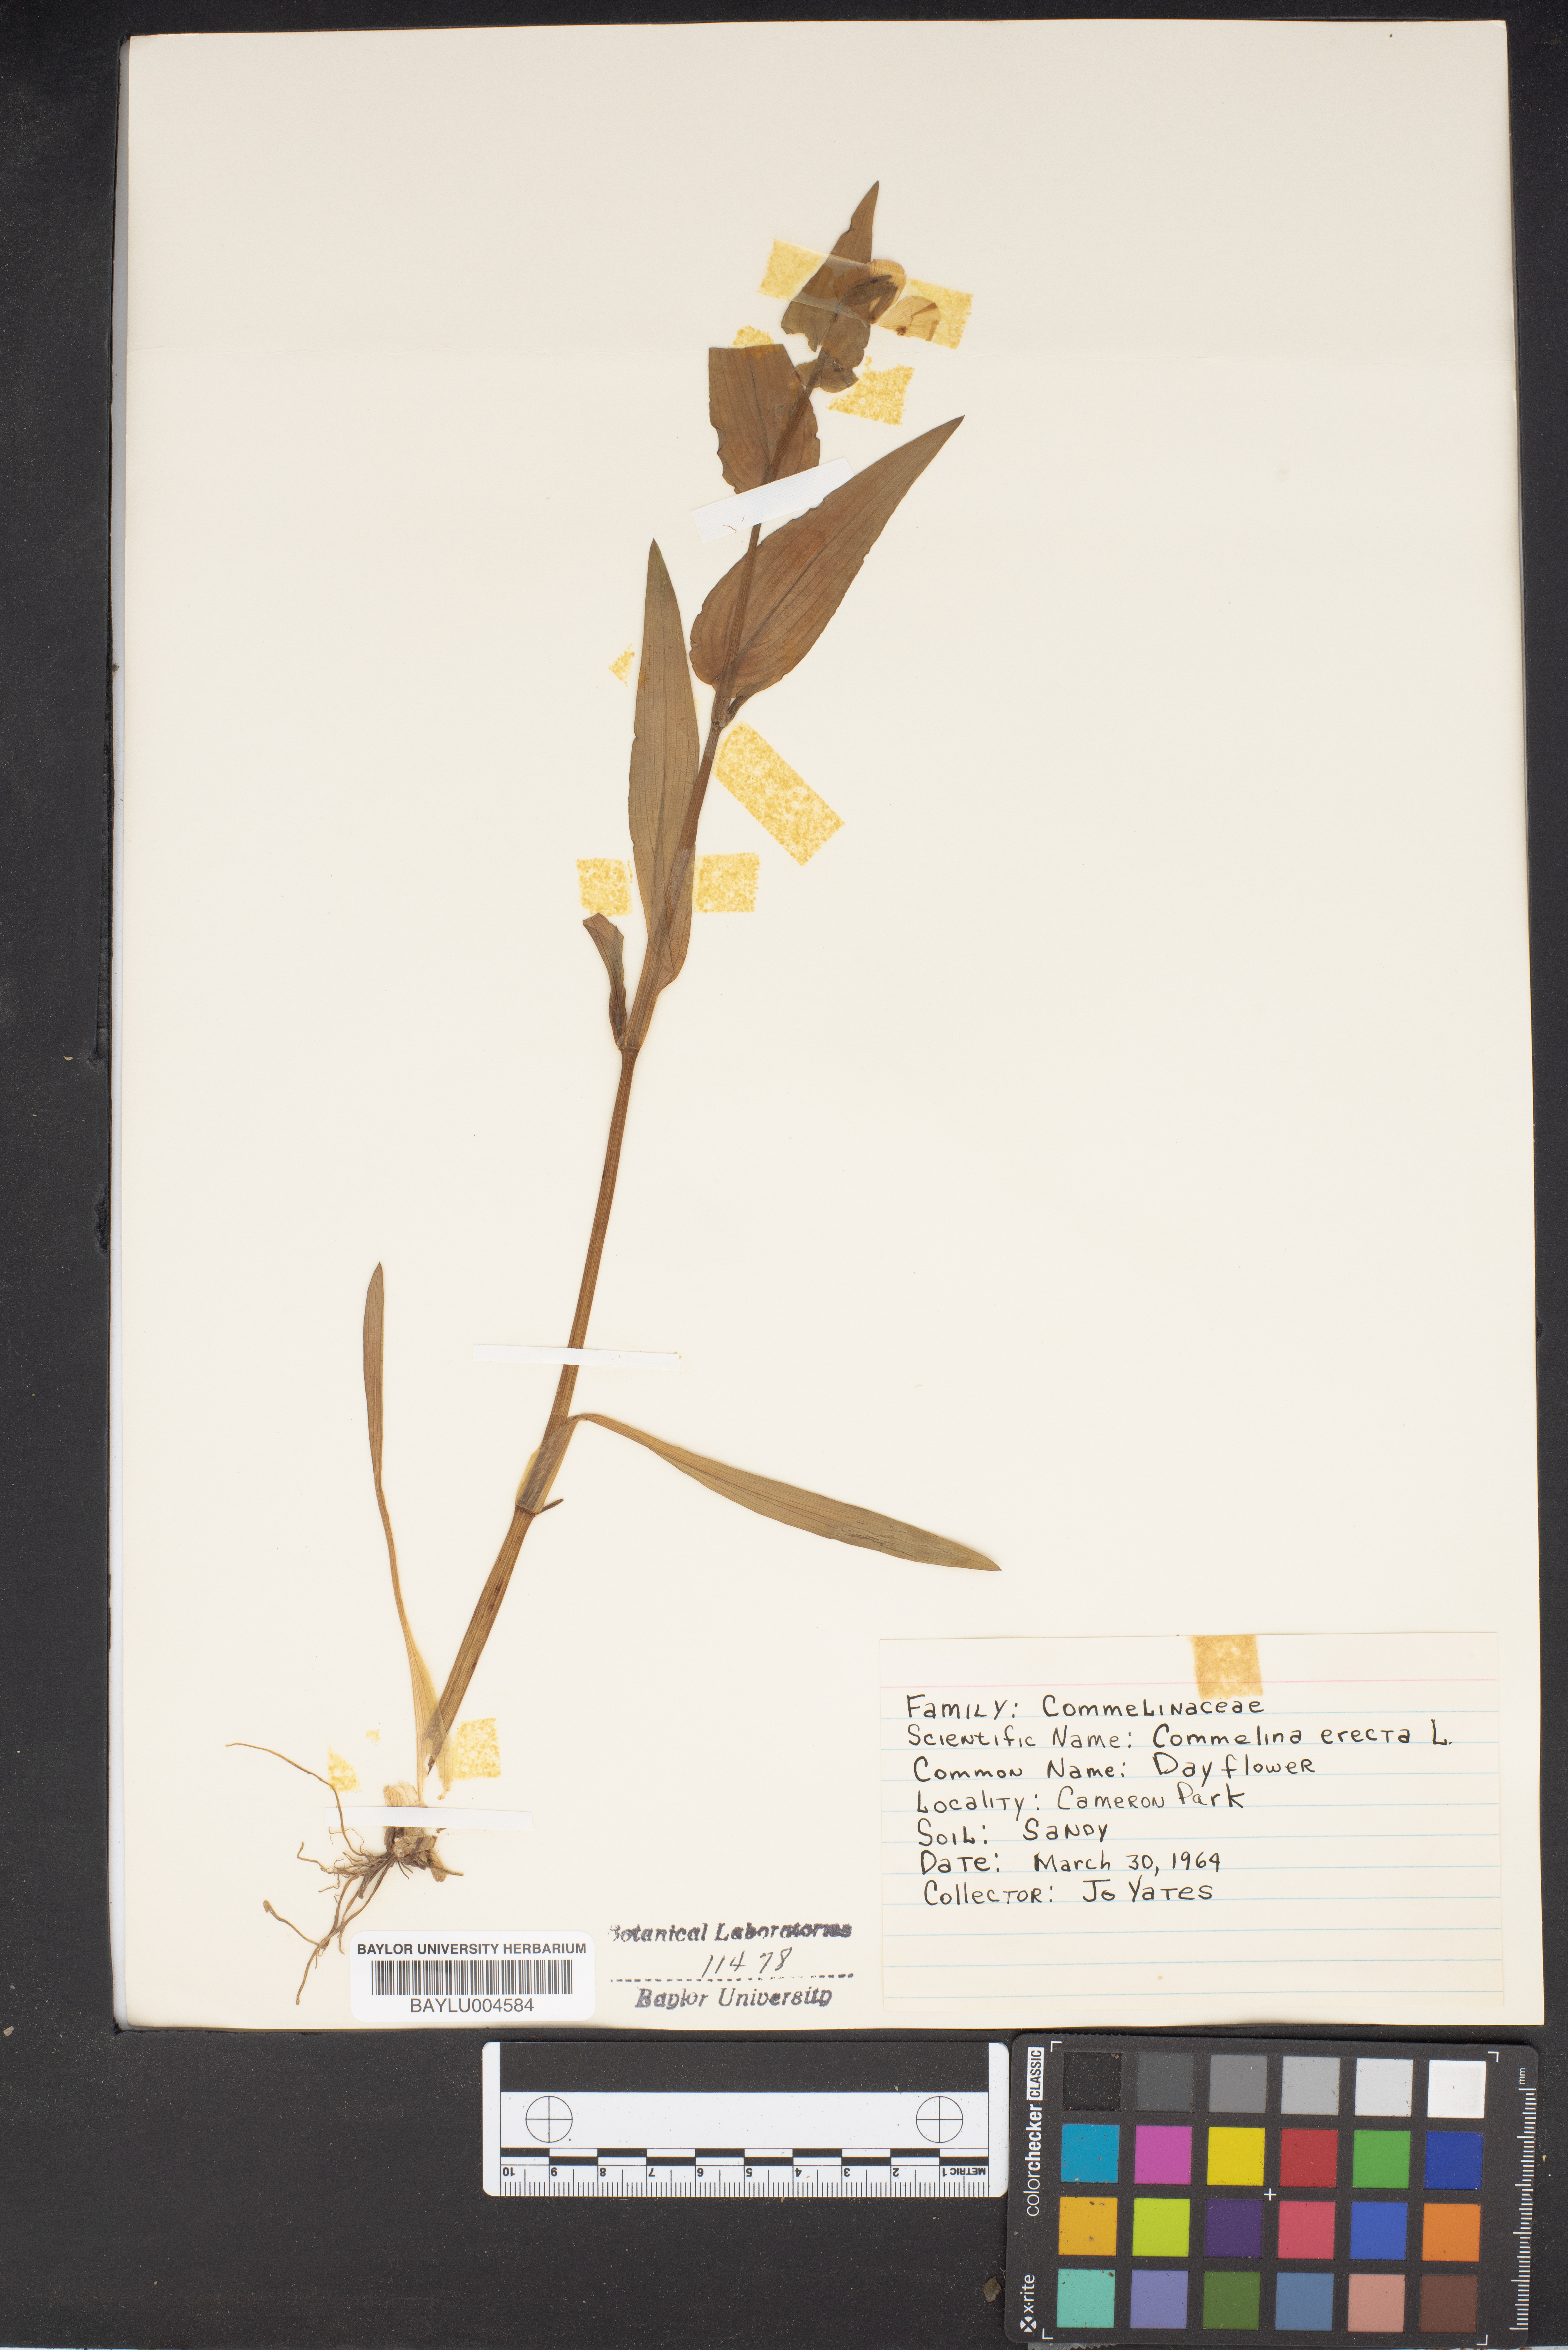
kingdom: Plantae
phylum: Tracheophyta
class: Liliopsida
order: Commelinales
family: Commelinaceae
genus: Commelina
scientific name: Commelina erecta
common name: Blousel blommetjie
